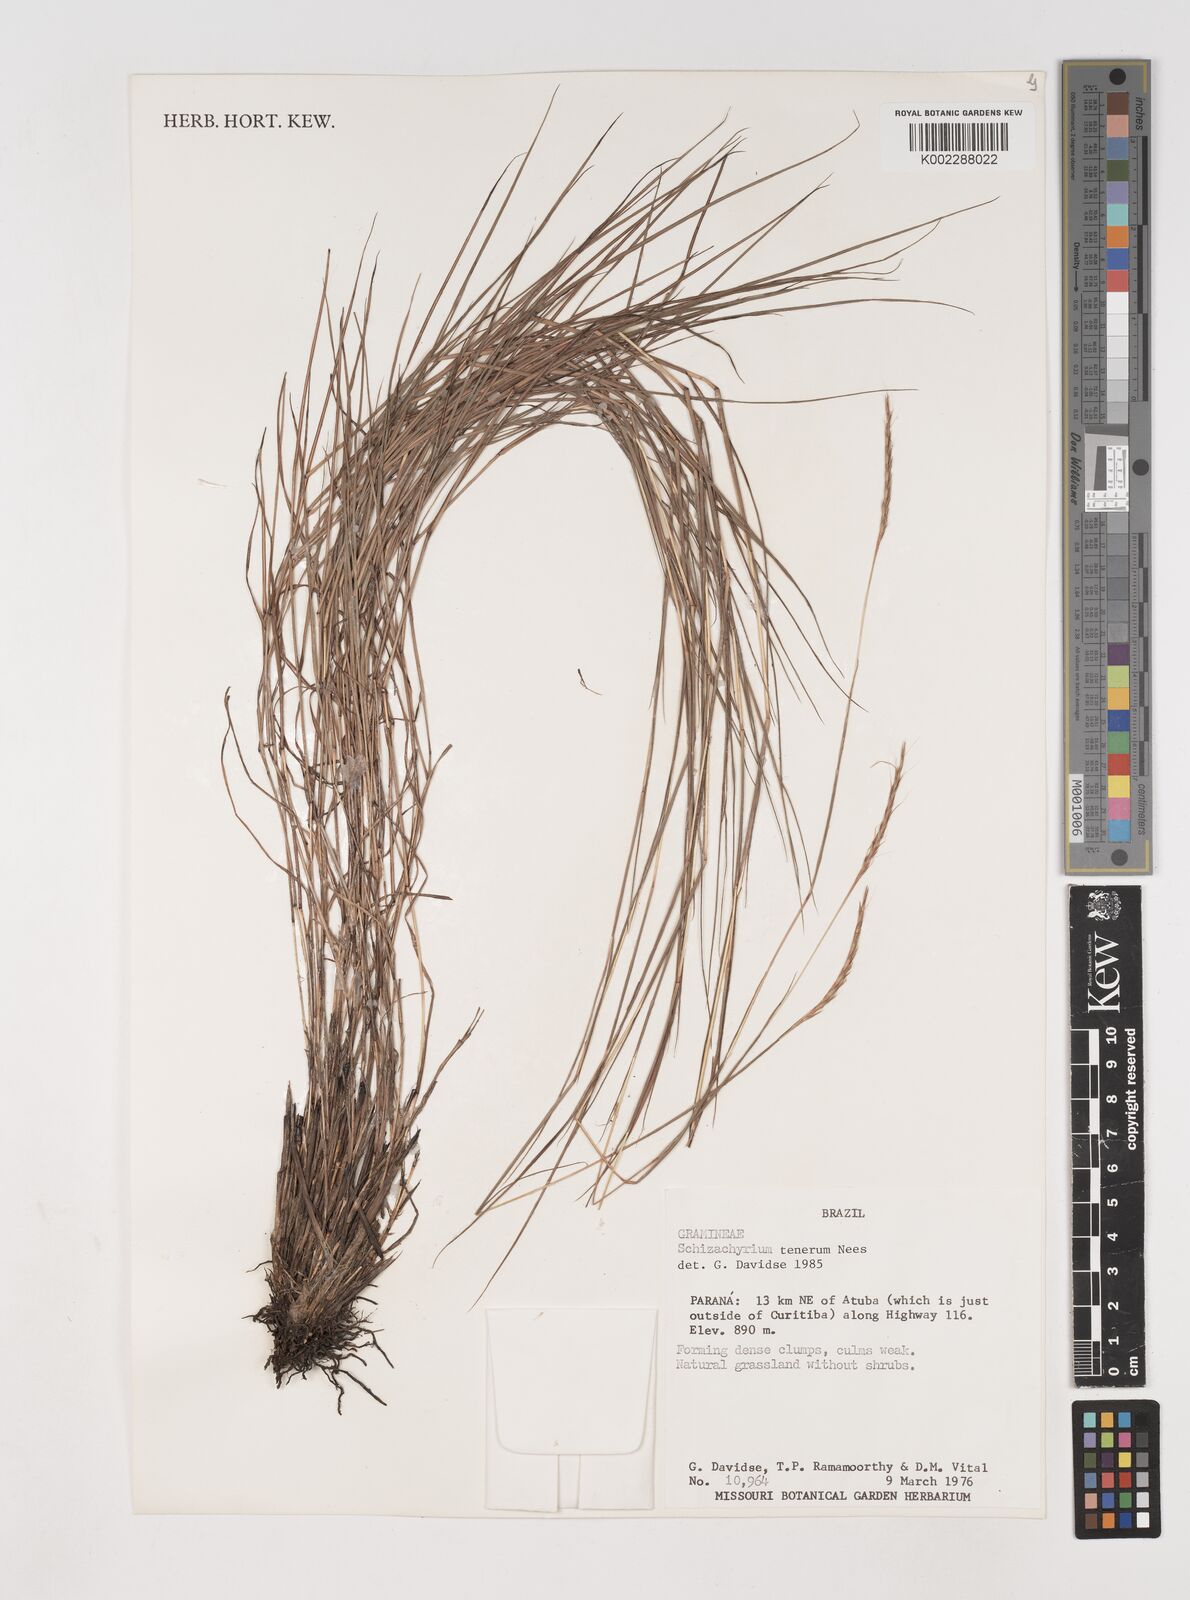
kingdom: Plantae
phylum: Tracheophyta
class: Liliopsida
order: Poales
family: Poaceae
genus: Andropogon
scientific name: Andropogon tener
